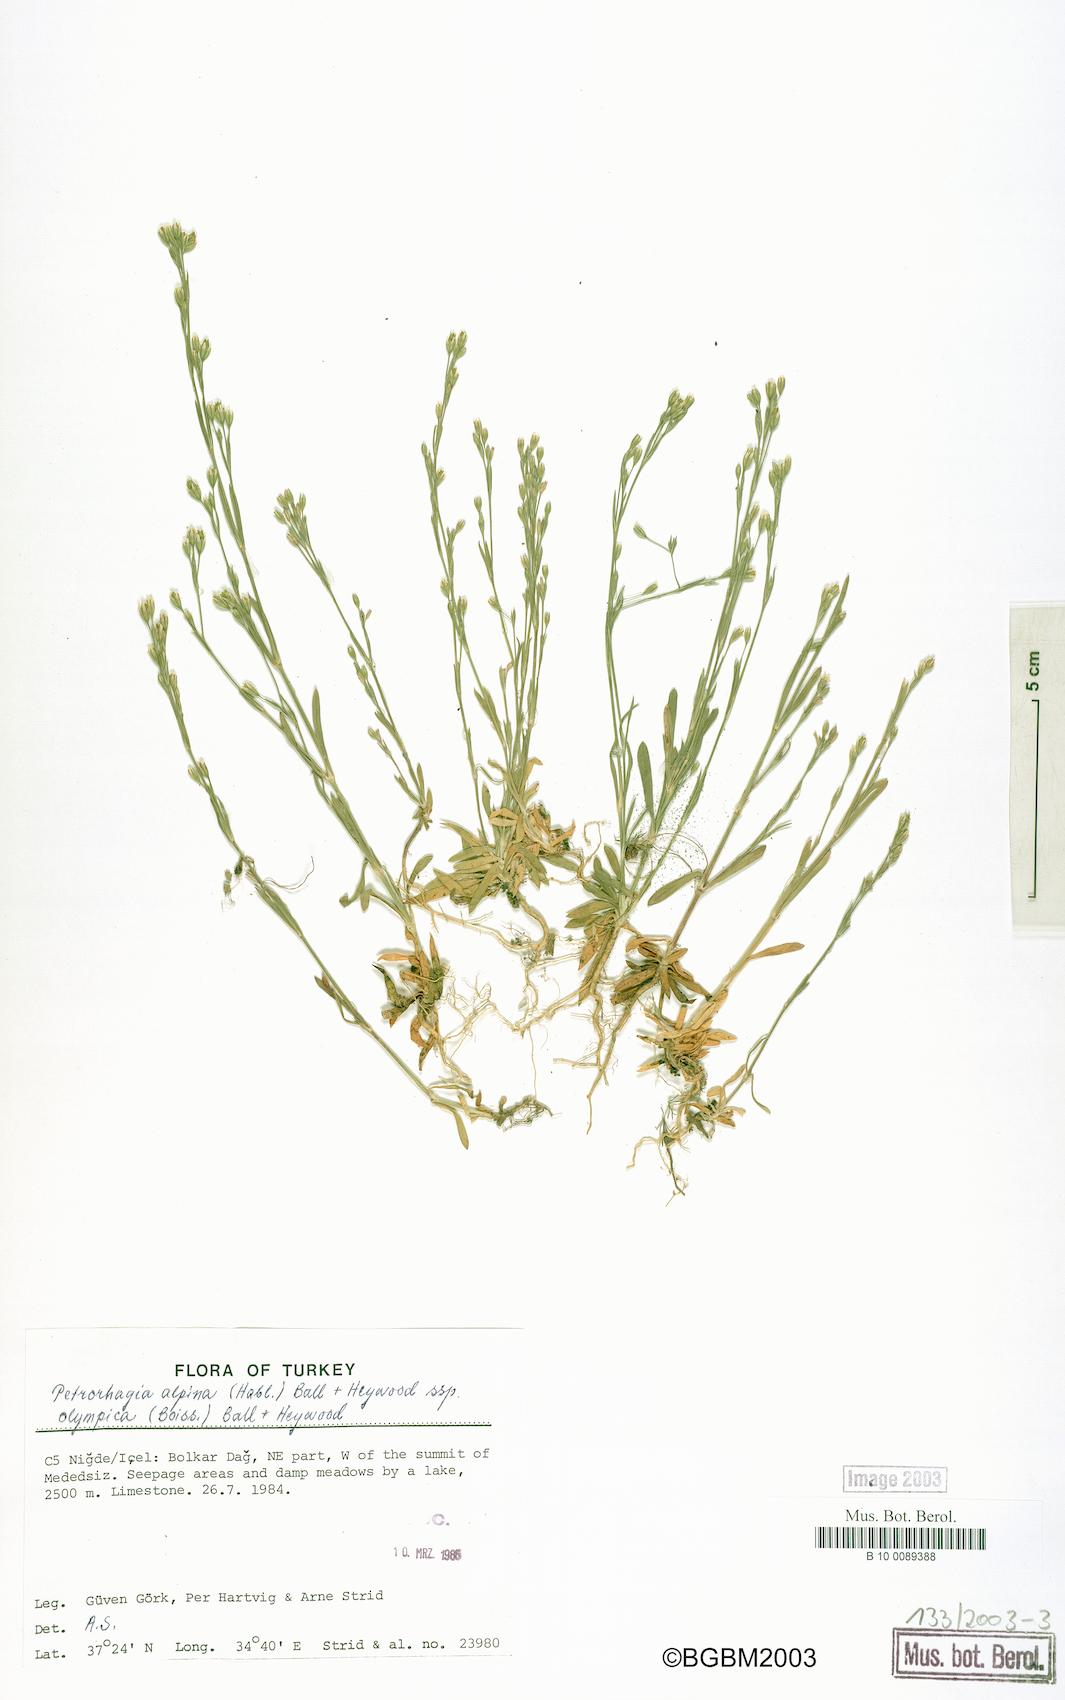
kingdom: Plantae
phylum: Tracheophyta
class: Magnoliopsida
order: Caryophyllales
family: Caryophyllaceae
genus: Petrorhagia
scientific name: Petrorhagia alpina
